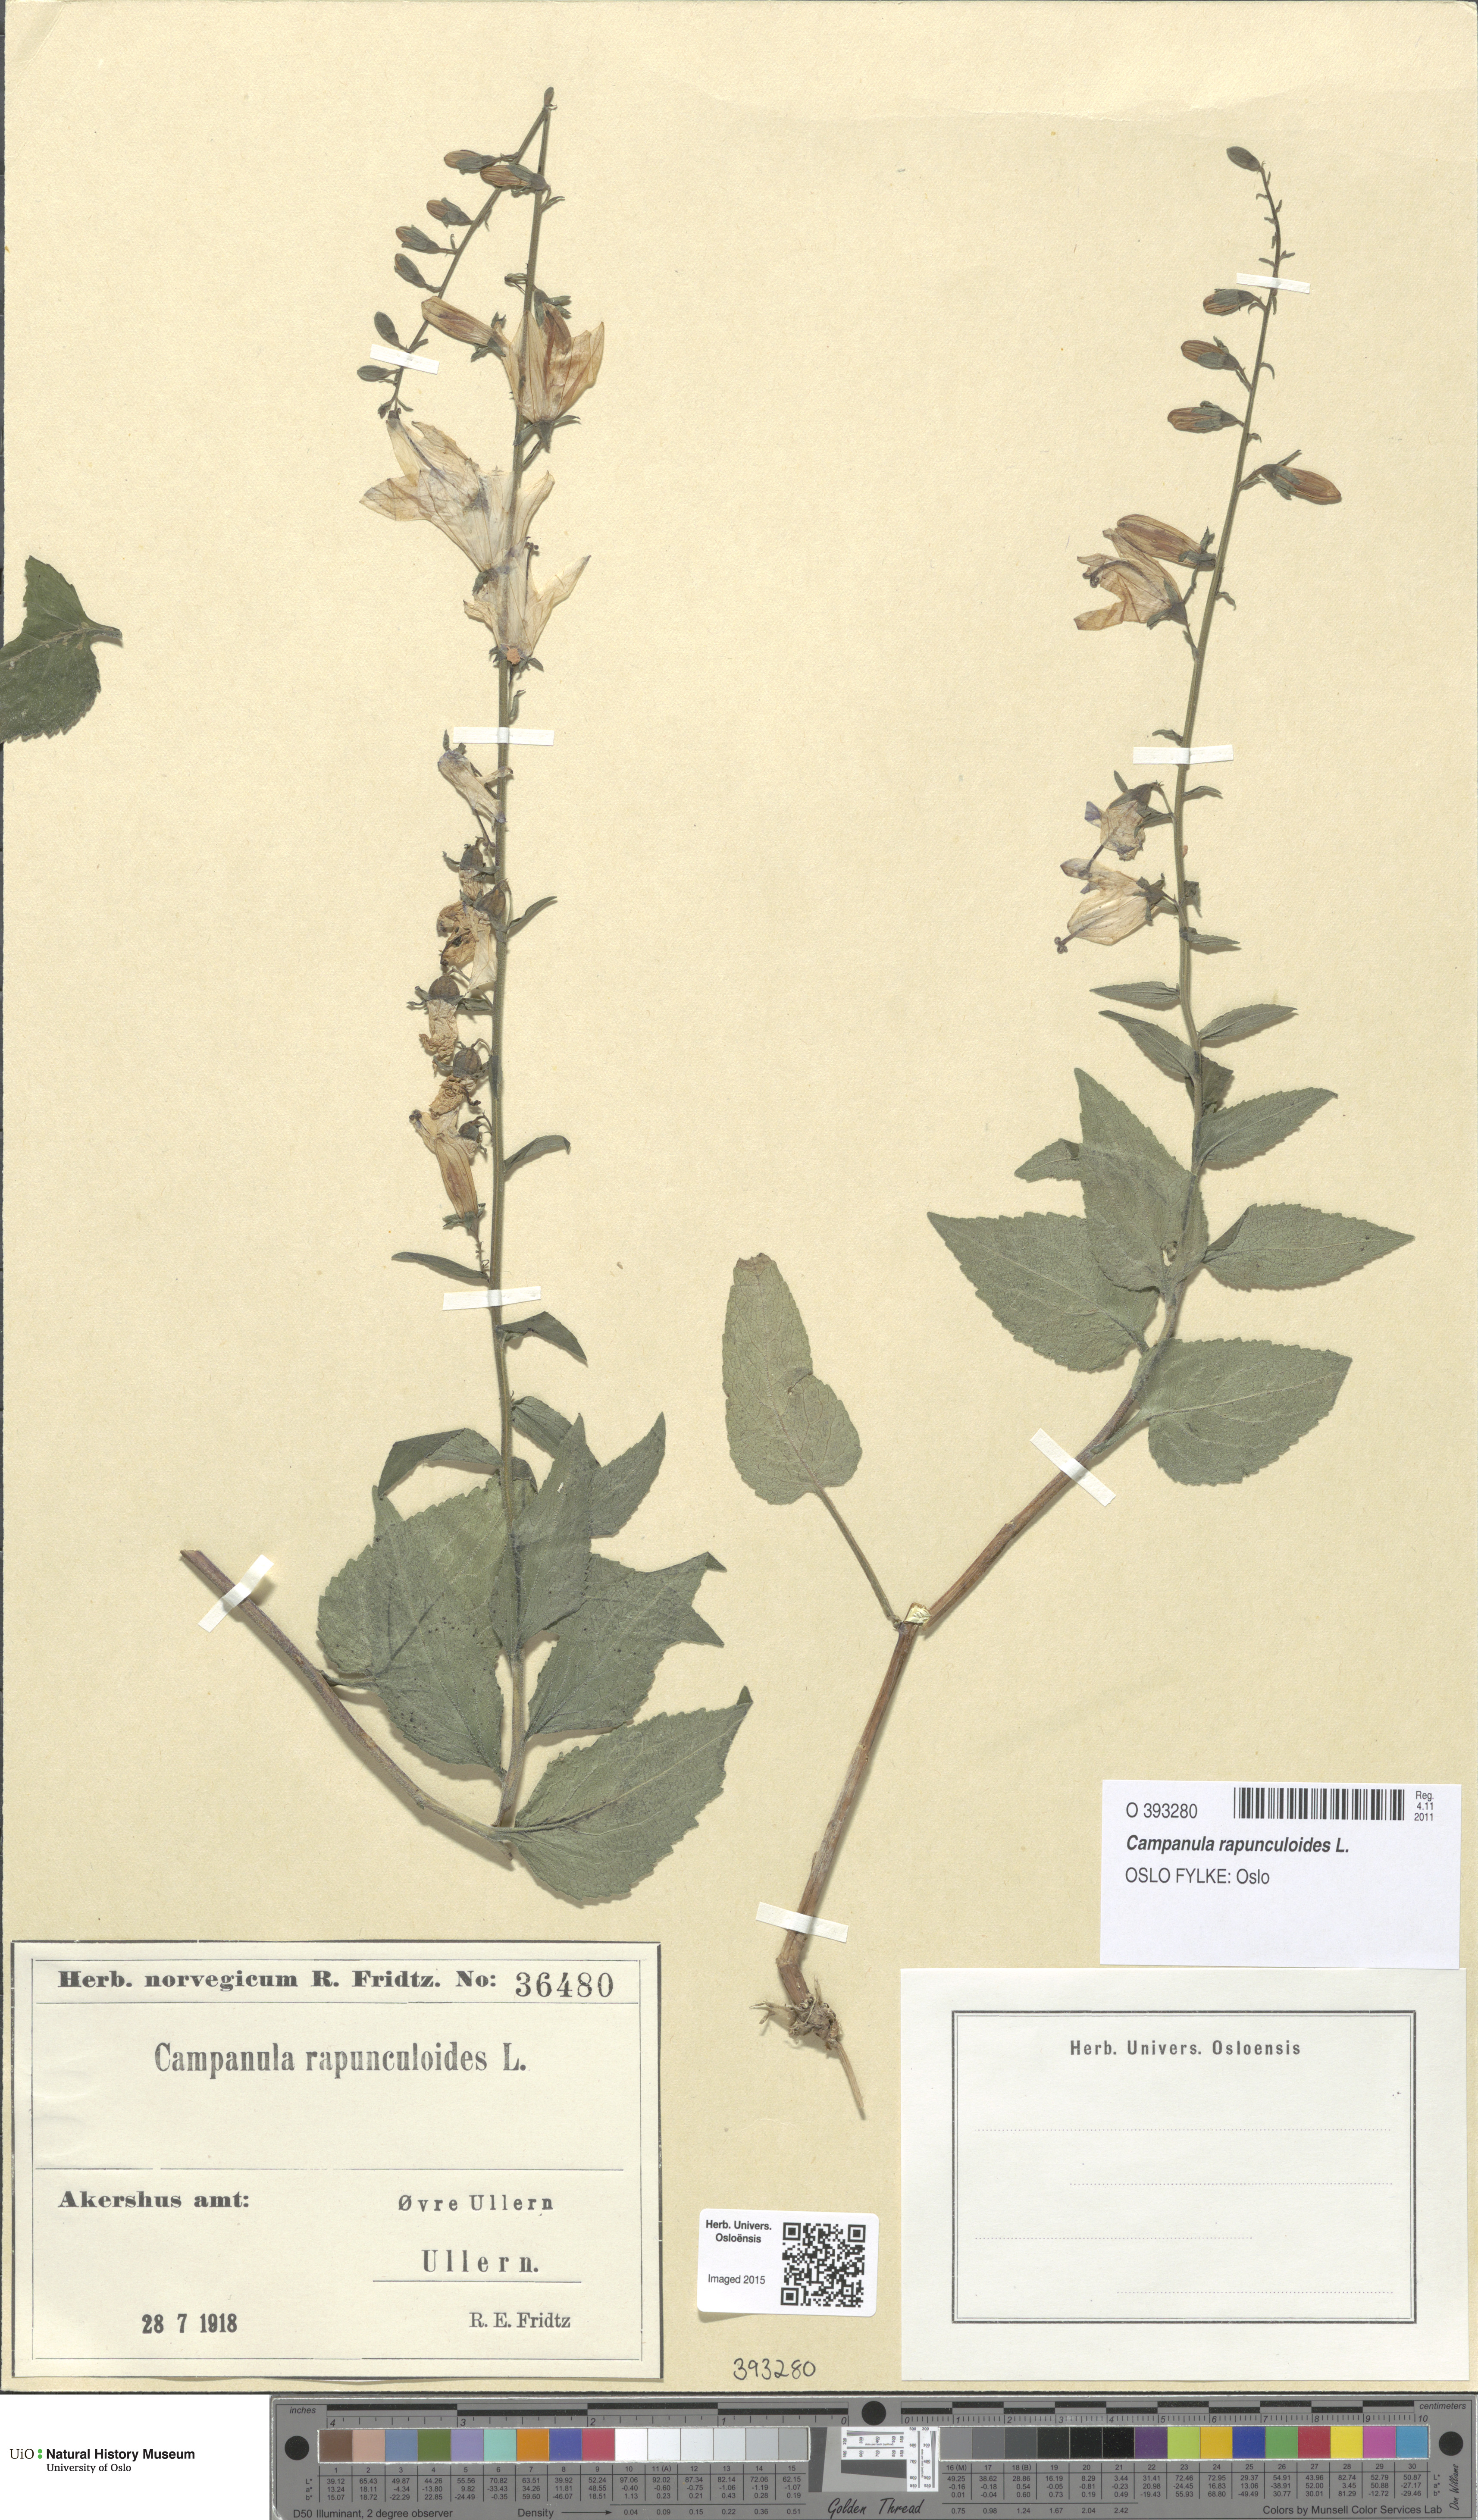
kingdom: Plantae
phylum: Tracheophyta
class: Magnoliopsida
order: Asterales
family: Campanulaceae
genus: Campanula
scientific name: Campanula rapunculoides
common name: Creeping bellflower
